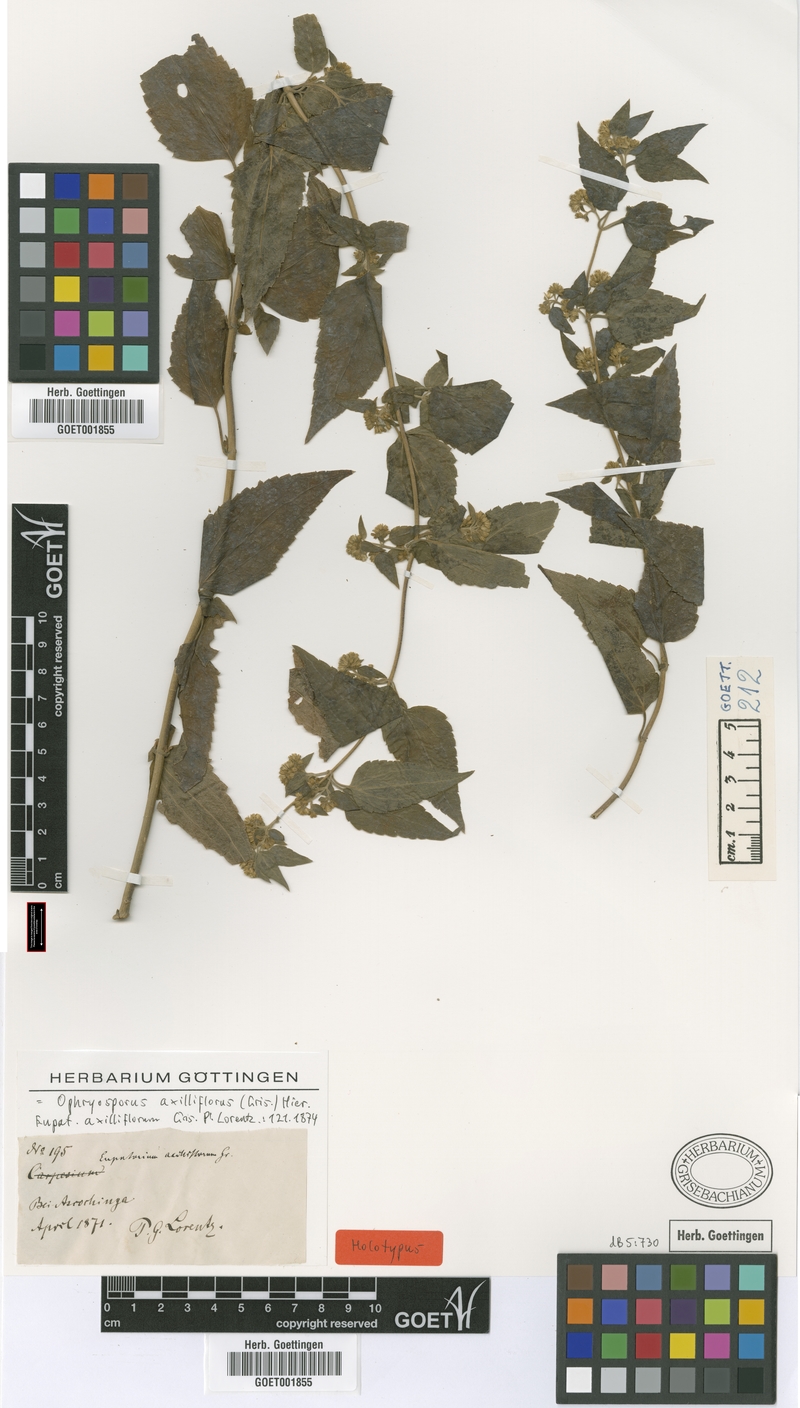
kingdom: Plantae
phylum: Tracheophyta
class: Magnoliopsida
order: Asterales
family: Asteraceae
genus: Ophryosporus
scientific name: Ophryosporus axilliflorus
